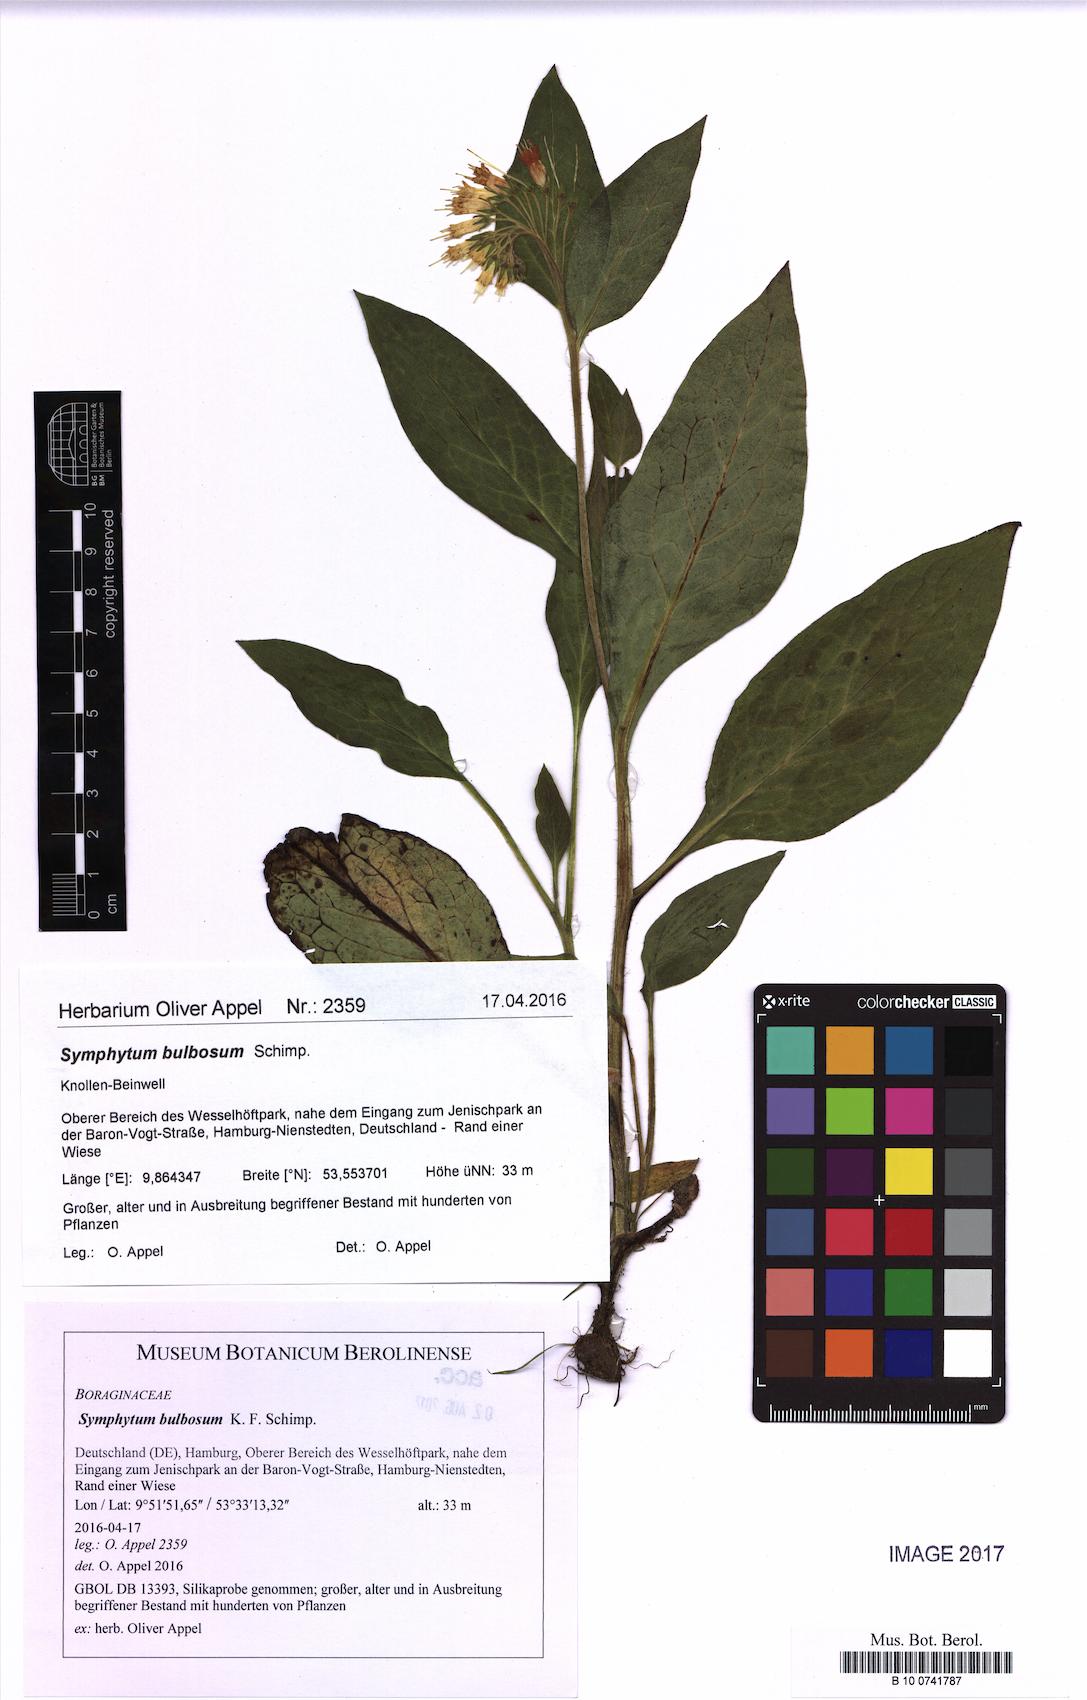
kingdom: Plantae
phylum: Tracheophyta
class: Magnoliopsida
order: Boraginales
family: Boraginaceae
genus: Symphytum
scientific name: Symphytum bulbosum
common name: Bulbous comfrey
